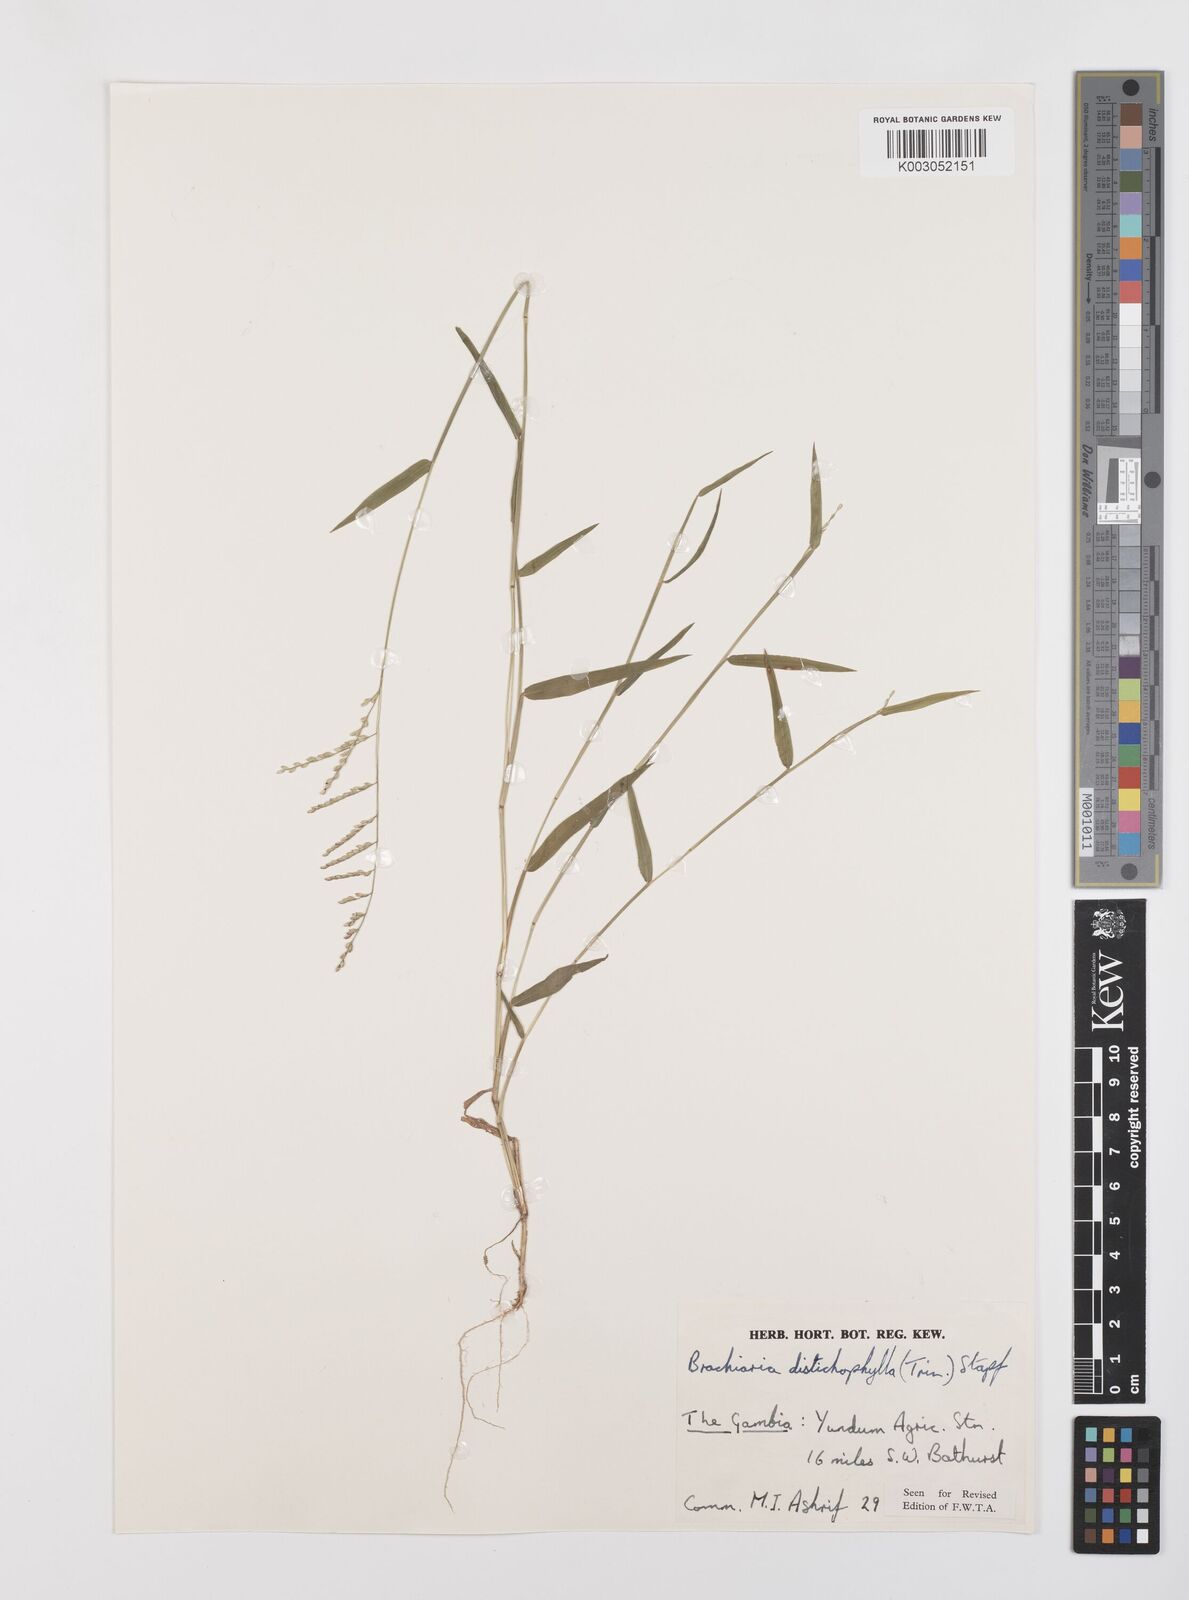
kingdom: Plantae
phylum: Tracheophyta
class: Liliopsida
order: Poales
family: Poaceae
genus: Urochloa
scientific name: Urochloa villosa
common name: Hairy signalgrass
